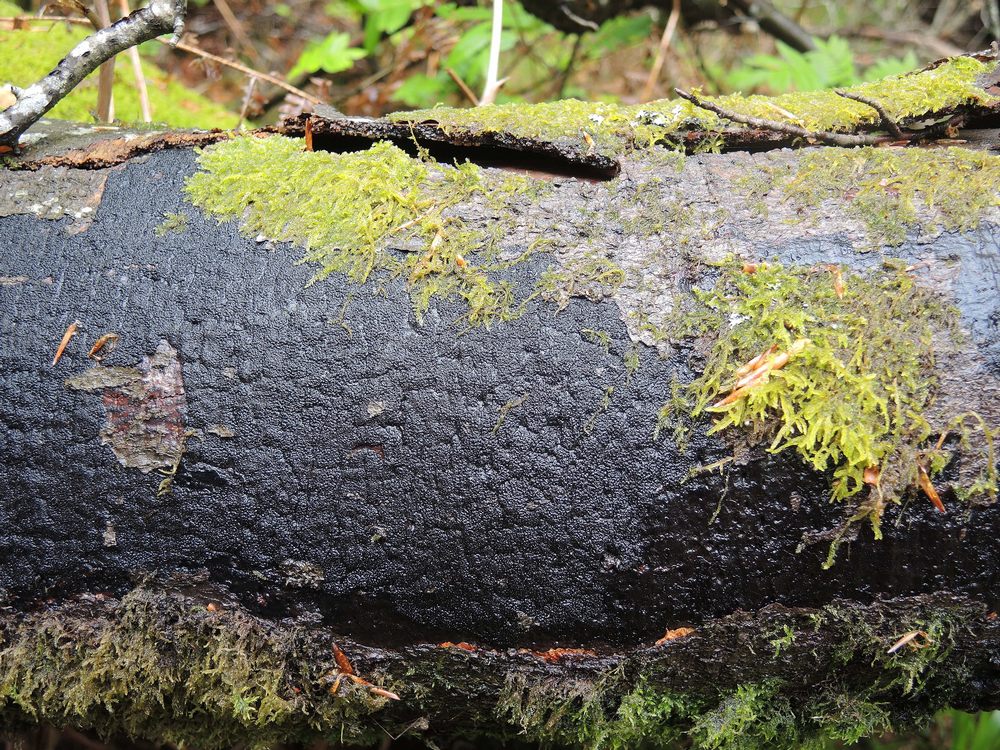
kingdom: Fungi
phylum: Ascomycota
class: Sordariomycetes
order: Xylariales
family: Diatrypaceae
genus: Eutypa
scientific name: Eutypa spinosa
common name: grov kulskorpe
